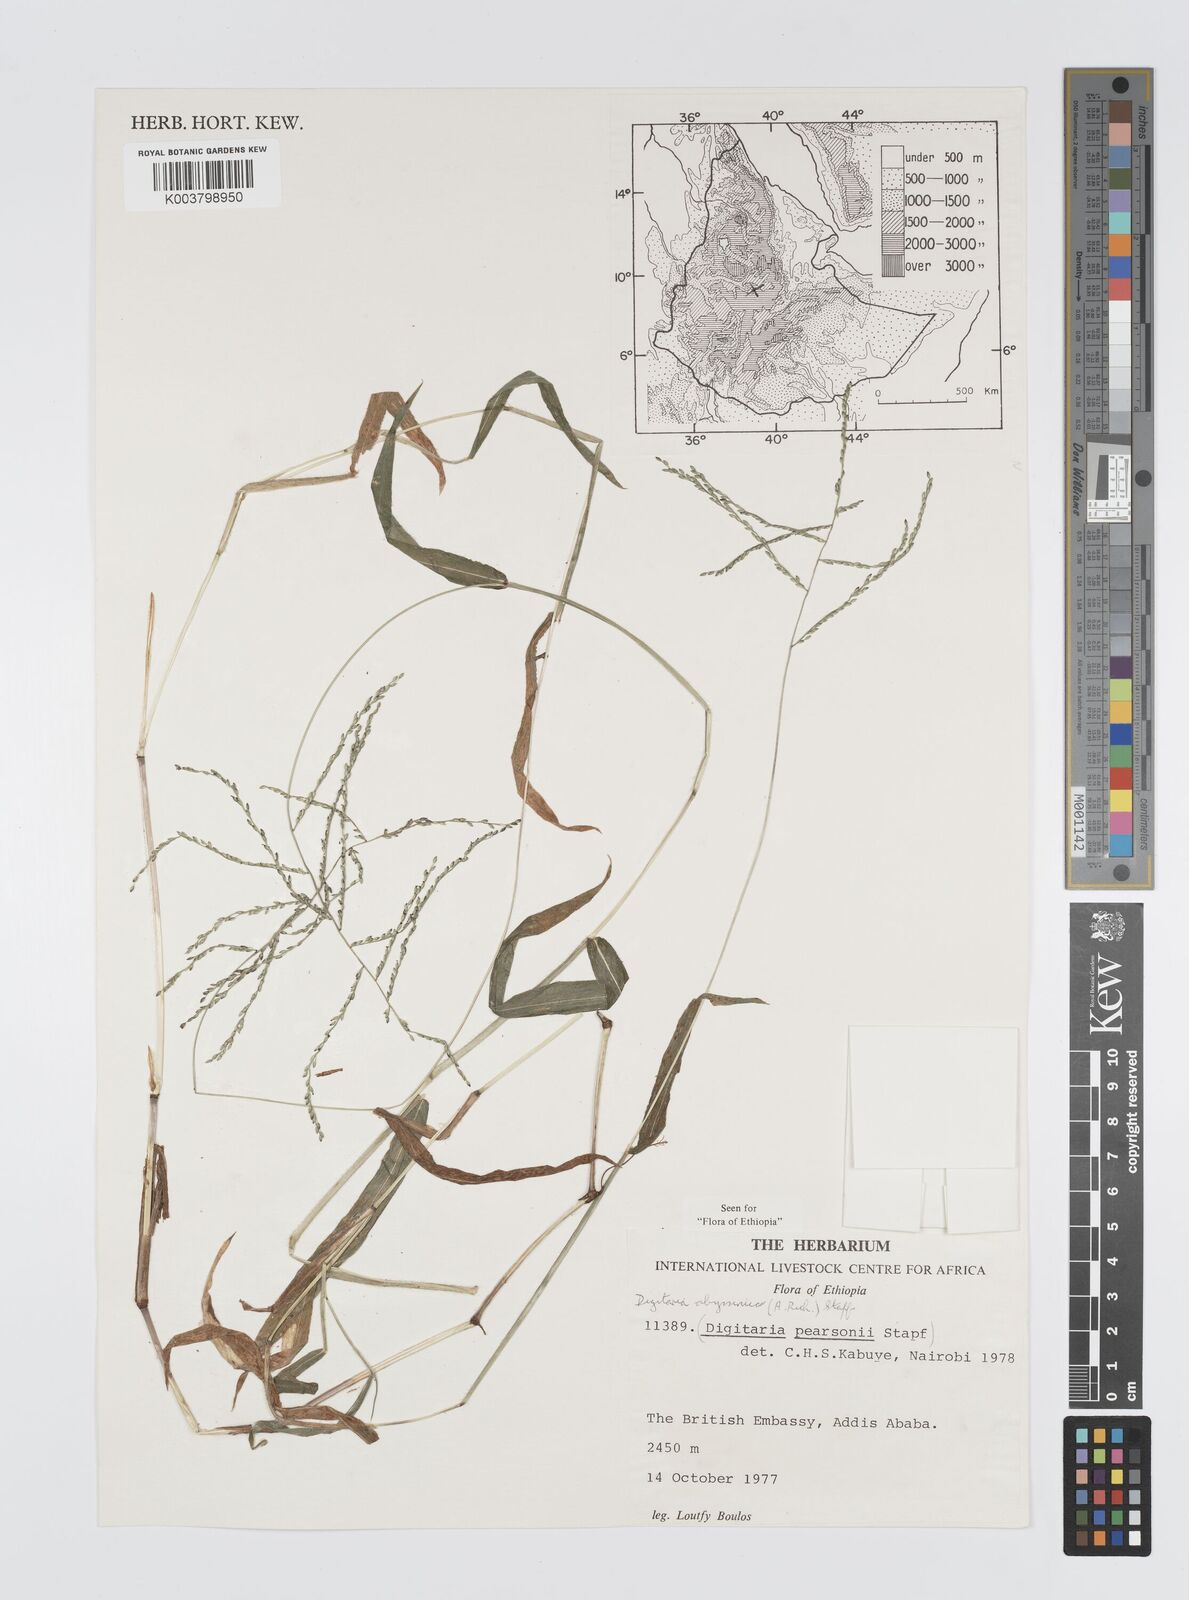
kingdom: Plantae
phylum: Tracheophyta
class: Liliopsida
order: Poales
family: Poaceae
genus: Digitaria
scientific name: Digitaria abyssinica
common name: African couchgrass
